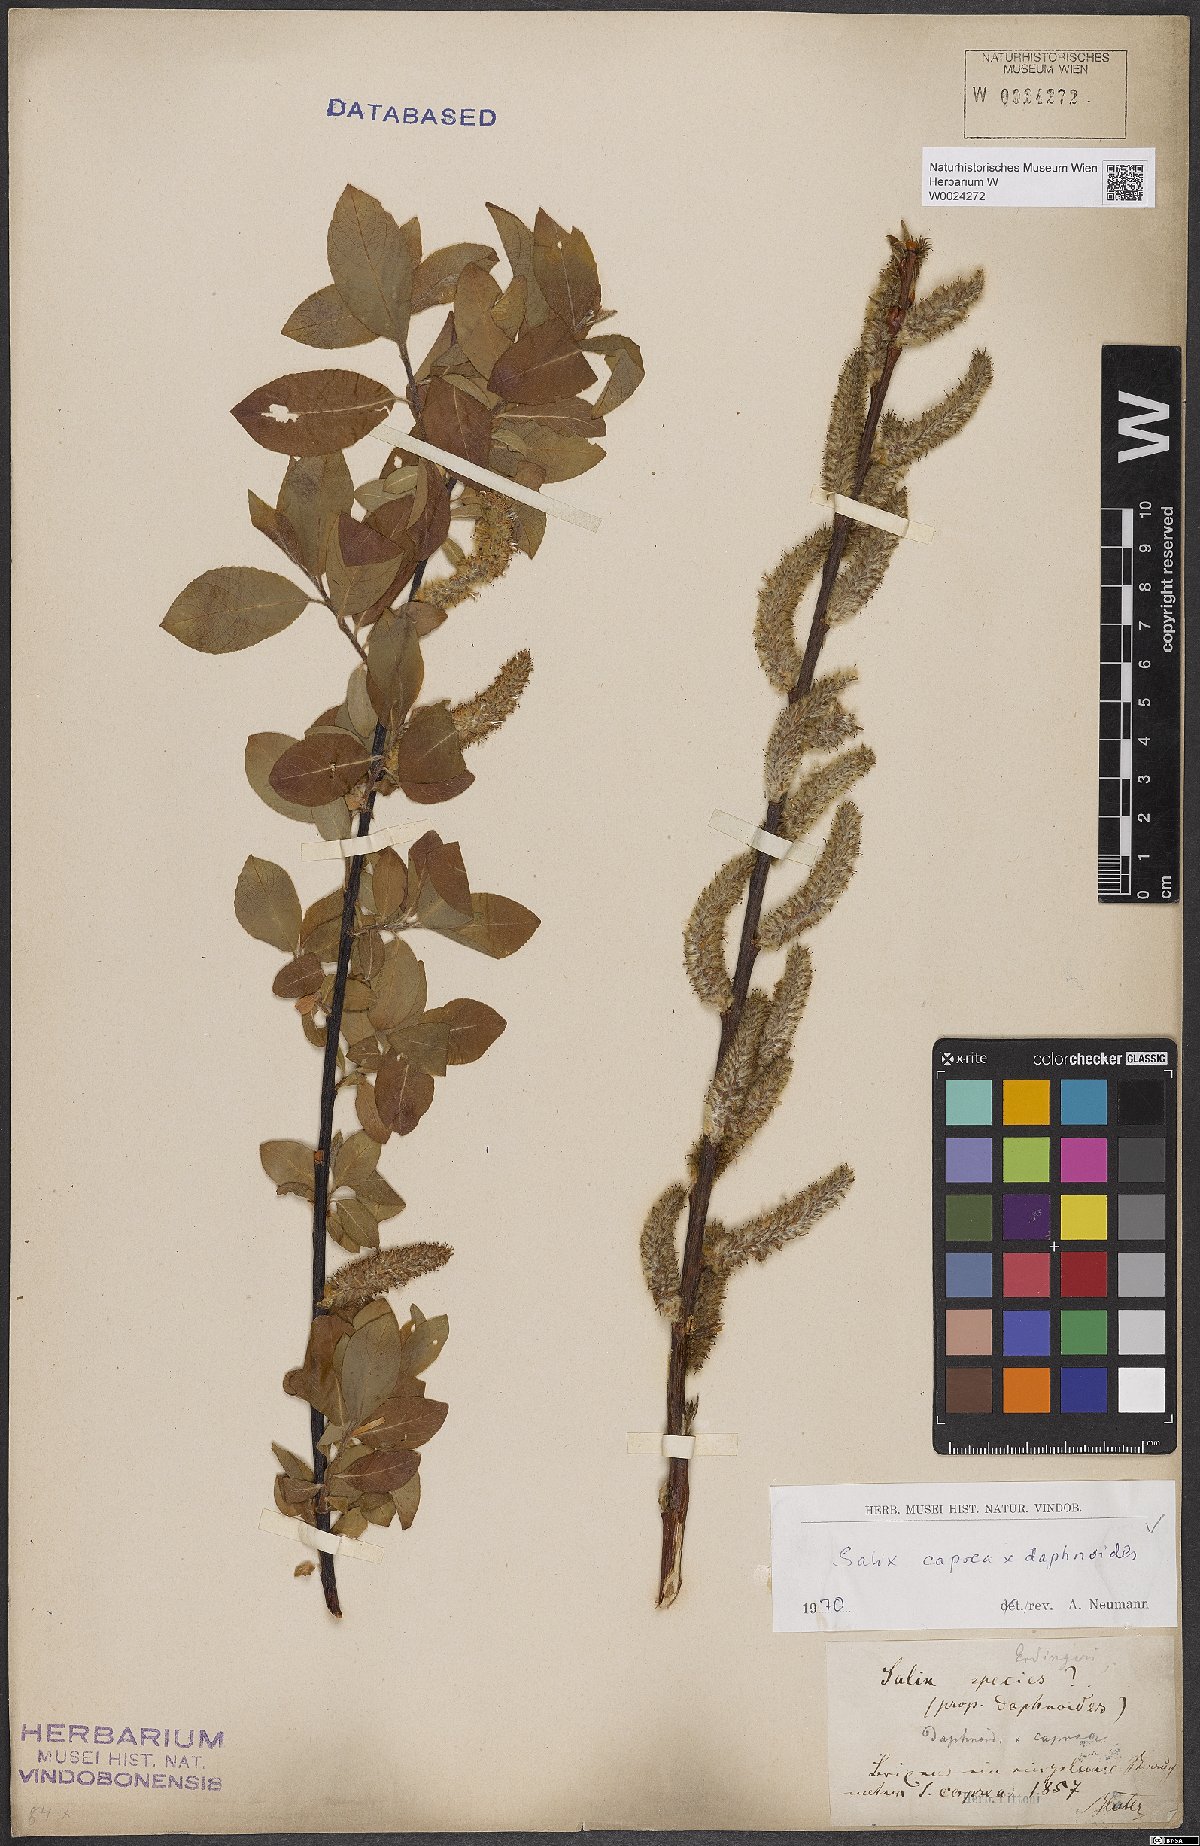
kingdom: Plantae
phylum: Tracheophyta
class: Magnoliopsida
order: Malpighiales
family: Salicaceae
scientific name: Salicaceae
